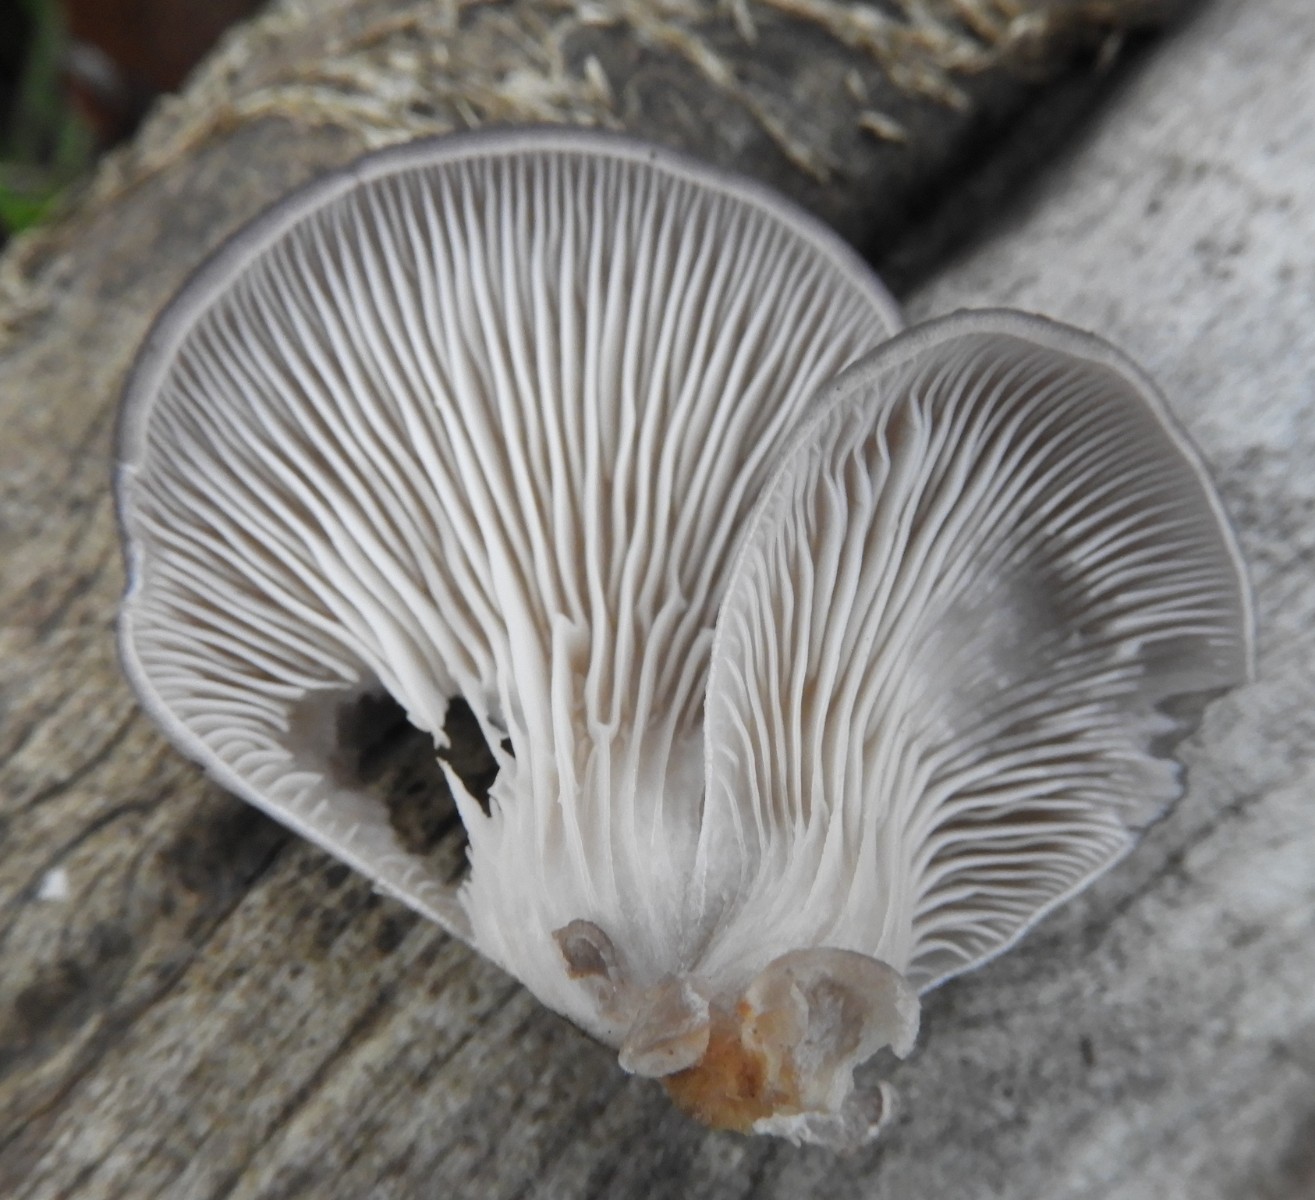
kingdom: Fungi
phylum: Basidiomycota
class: Agaricomycetes
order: Agaricales
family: Pleurotaceae
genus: Pleurotus
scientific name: Pleurotus ostreatus
